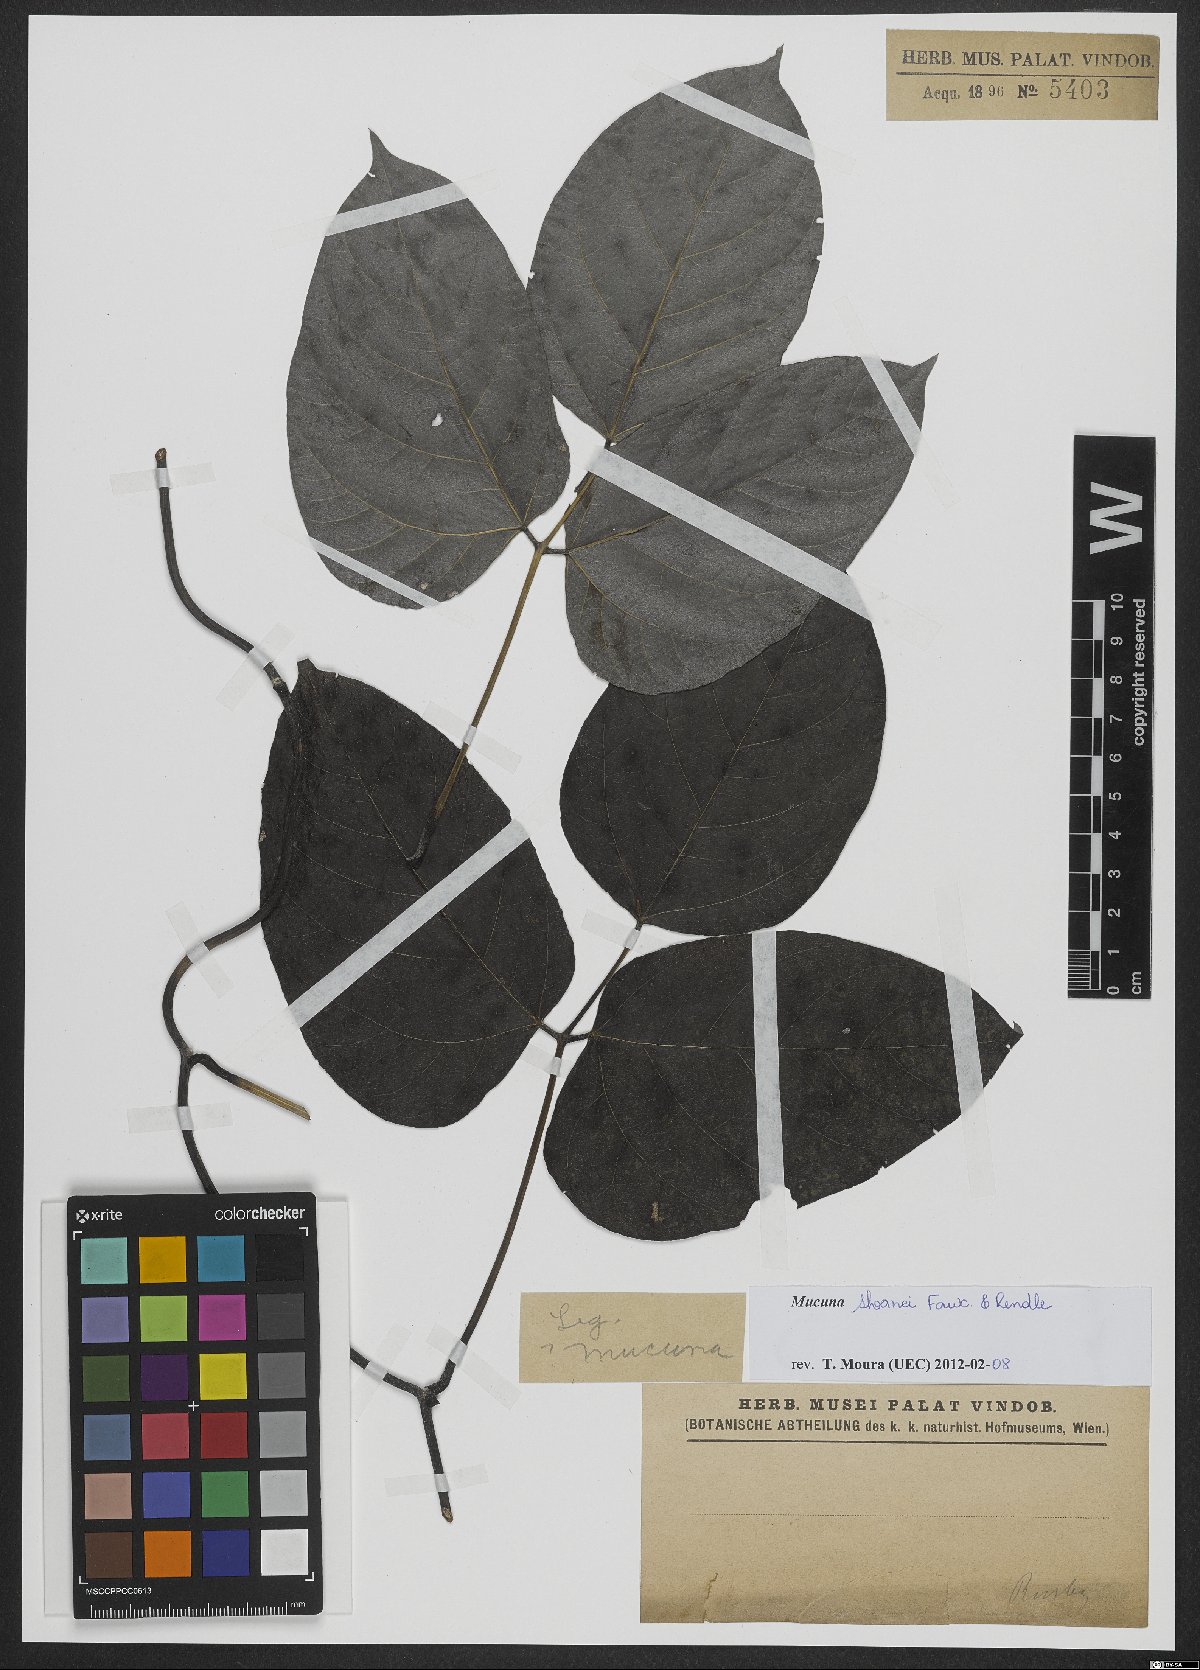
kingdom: Plantae
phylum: Tracheophyta
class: Magnoliopsida
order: Fabales
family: Fabaceae
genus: Mucuna
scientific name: Mucuna sloanei
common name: Horse-eye bean
